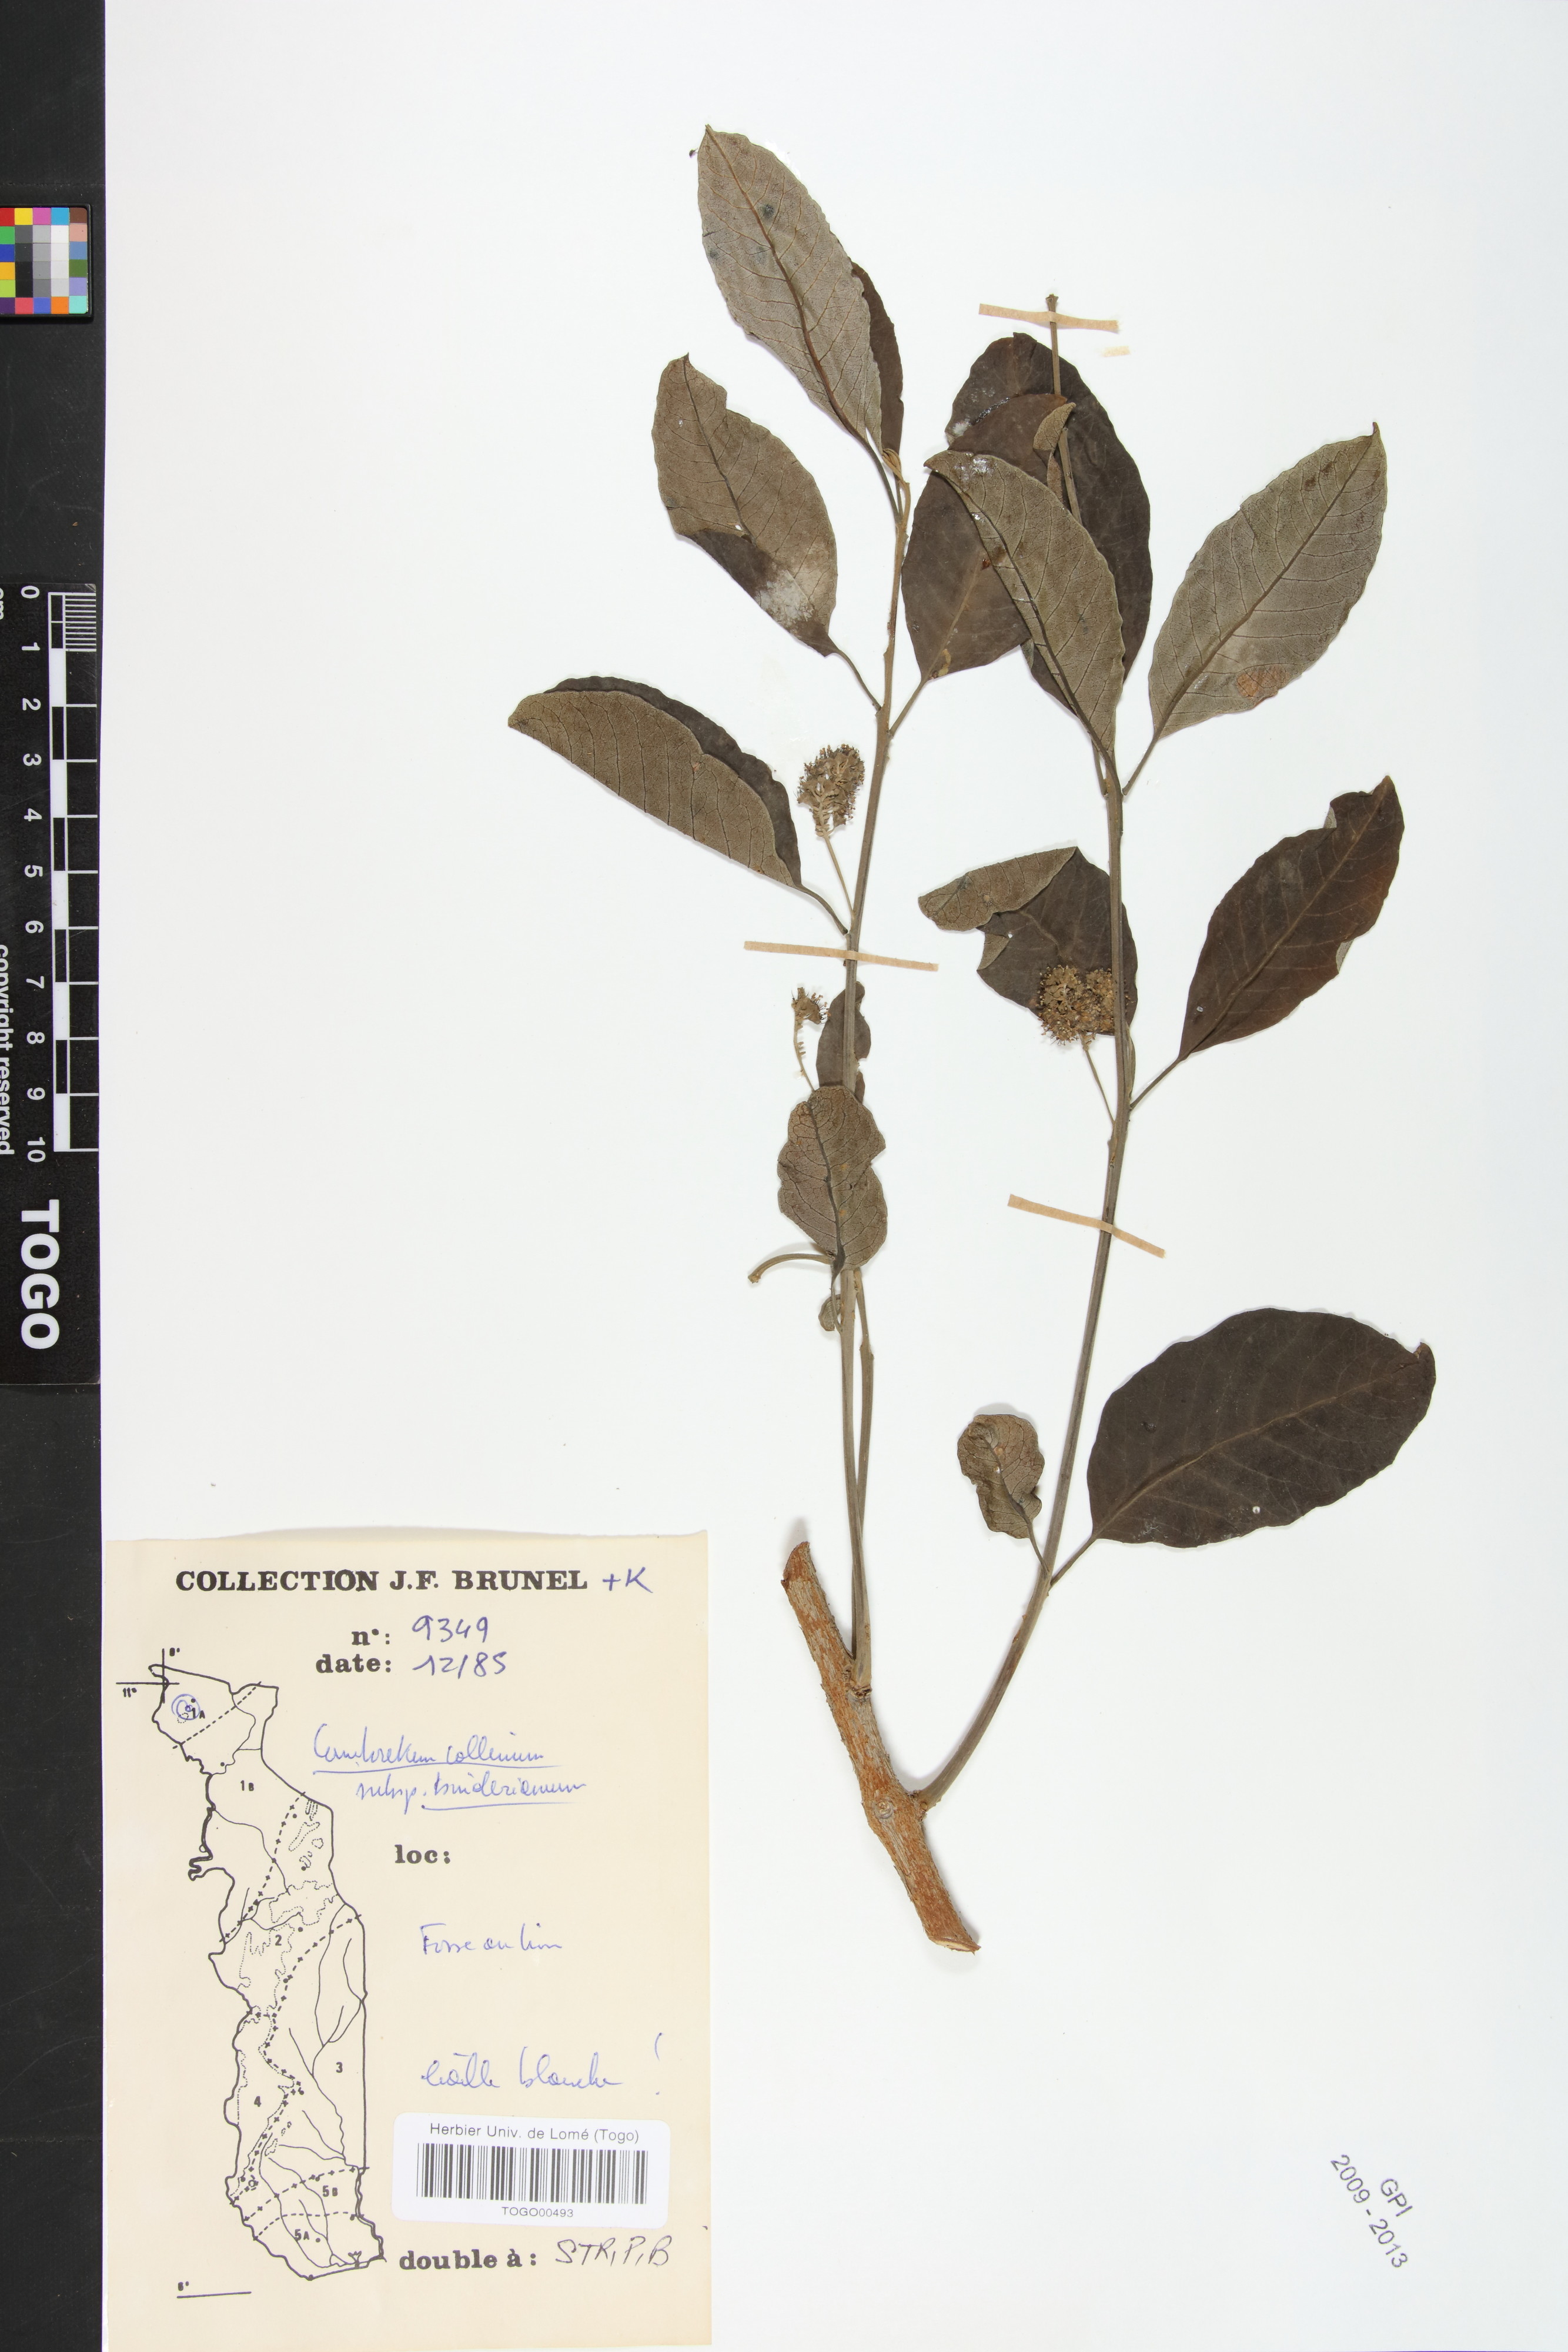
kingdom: Plantae
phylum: Tracheophyta
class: Magnoliopsida
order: Myrtales
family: Combretaceae
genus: Combretum
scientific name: Combretum collinum
